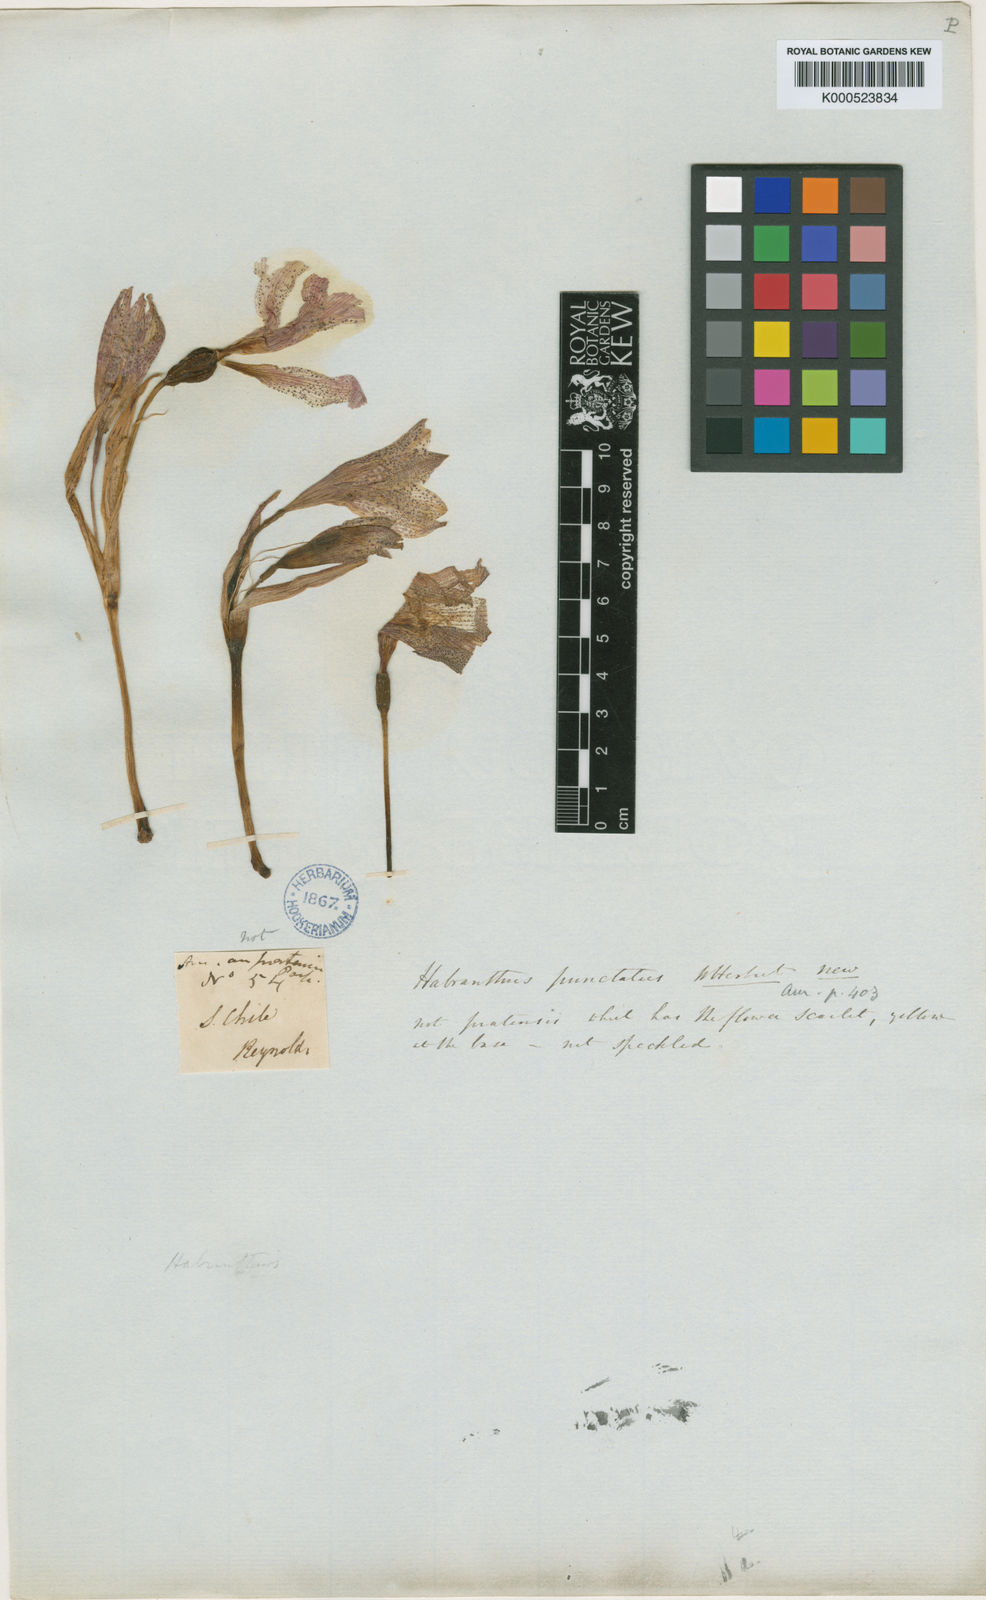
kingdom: Plantae
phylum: Tracheophyta
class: Liliopsida
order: Asparagales
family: Amaryllidaceae
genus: Hippeastrum
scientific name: Hippeastrum
